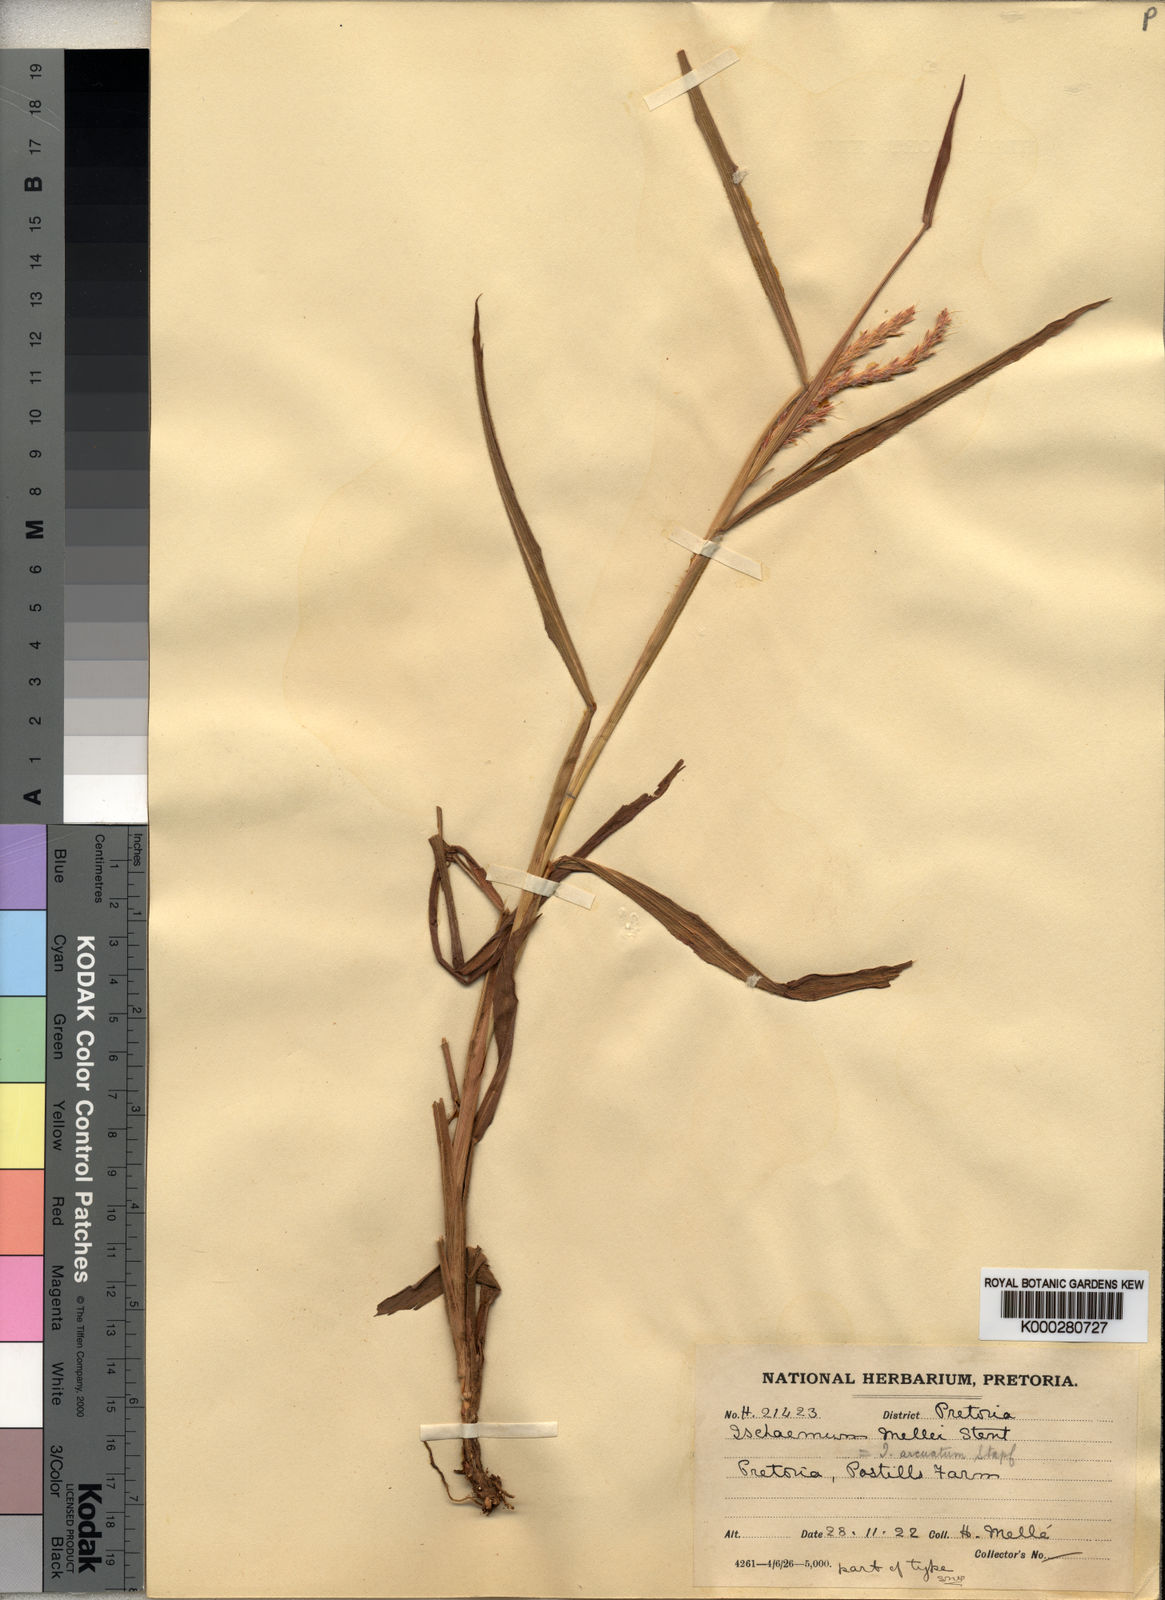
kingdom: Plantae
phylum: Tracheophyta
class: Liliopsida
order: Poales
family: Poaceae
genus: Ischaemum
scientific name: Ischaemum polystachyum
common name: Paddle grass
